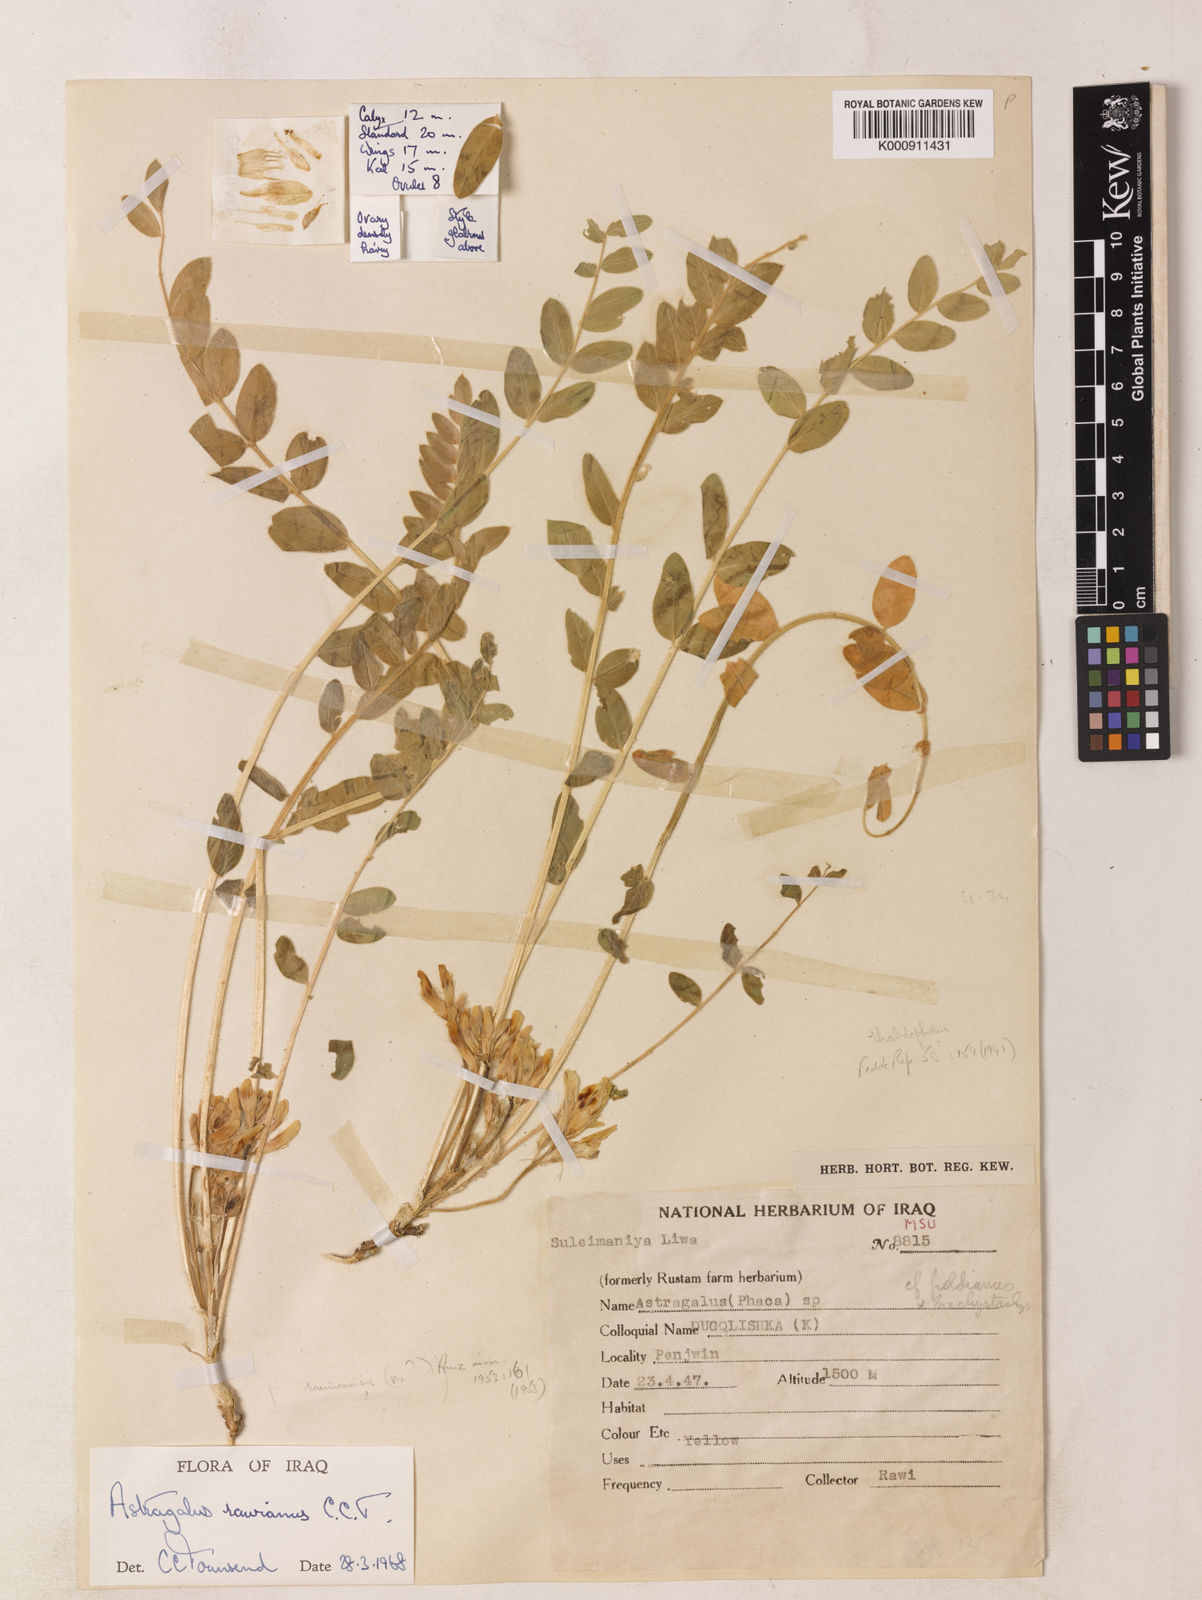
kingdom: Plantae
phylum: Tracheophyta
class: Magnoliopsida
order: Fabales
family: Fabaceae
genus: Astragalus
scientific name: Astragalus rawianus
